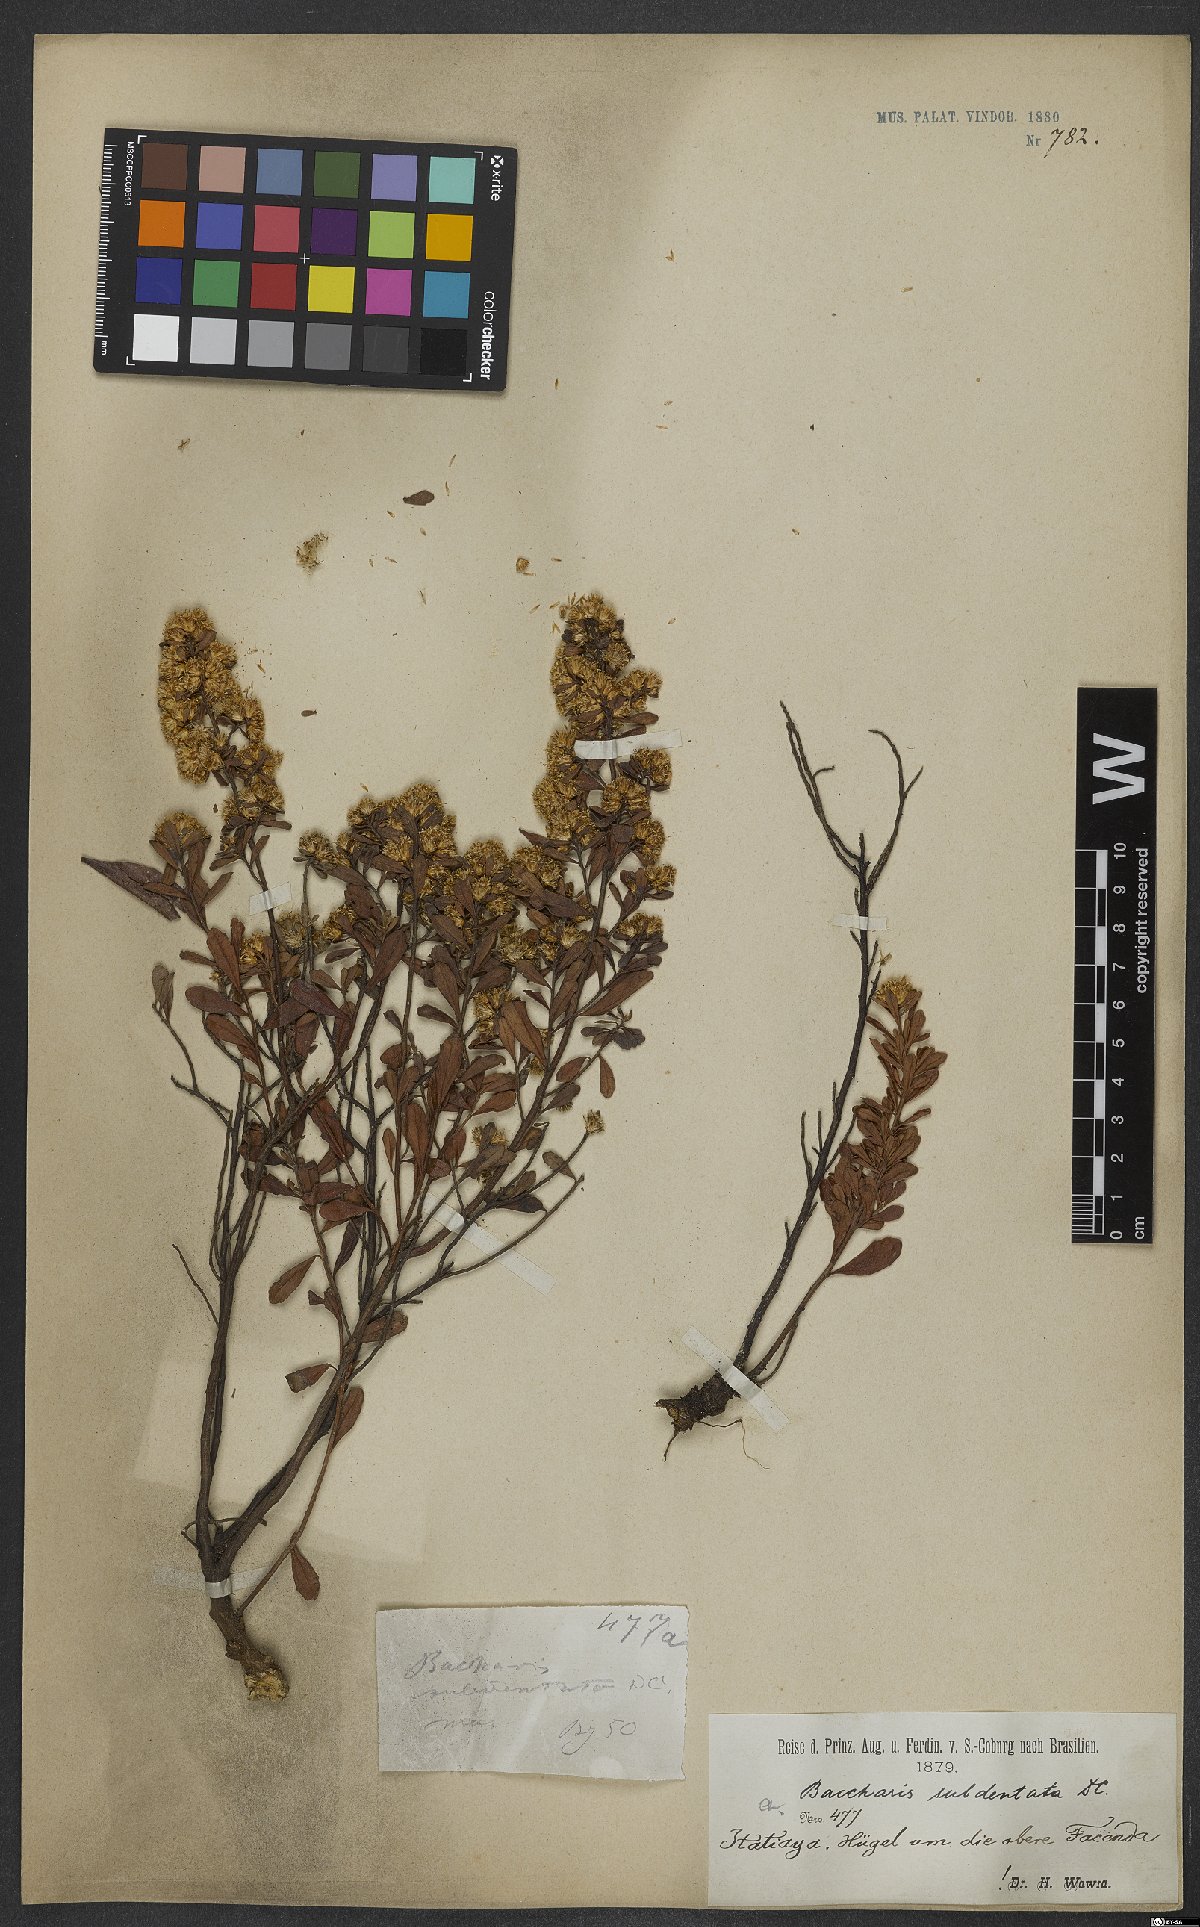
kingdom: Plantae
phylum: Tracheophyta
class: Magnoliopsida
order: Asterales
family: Asteraceae
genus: Baccharis
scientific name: Baccharis subdentata
